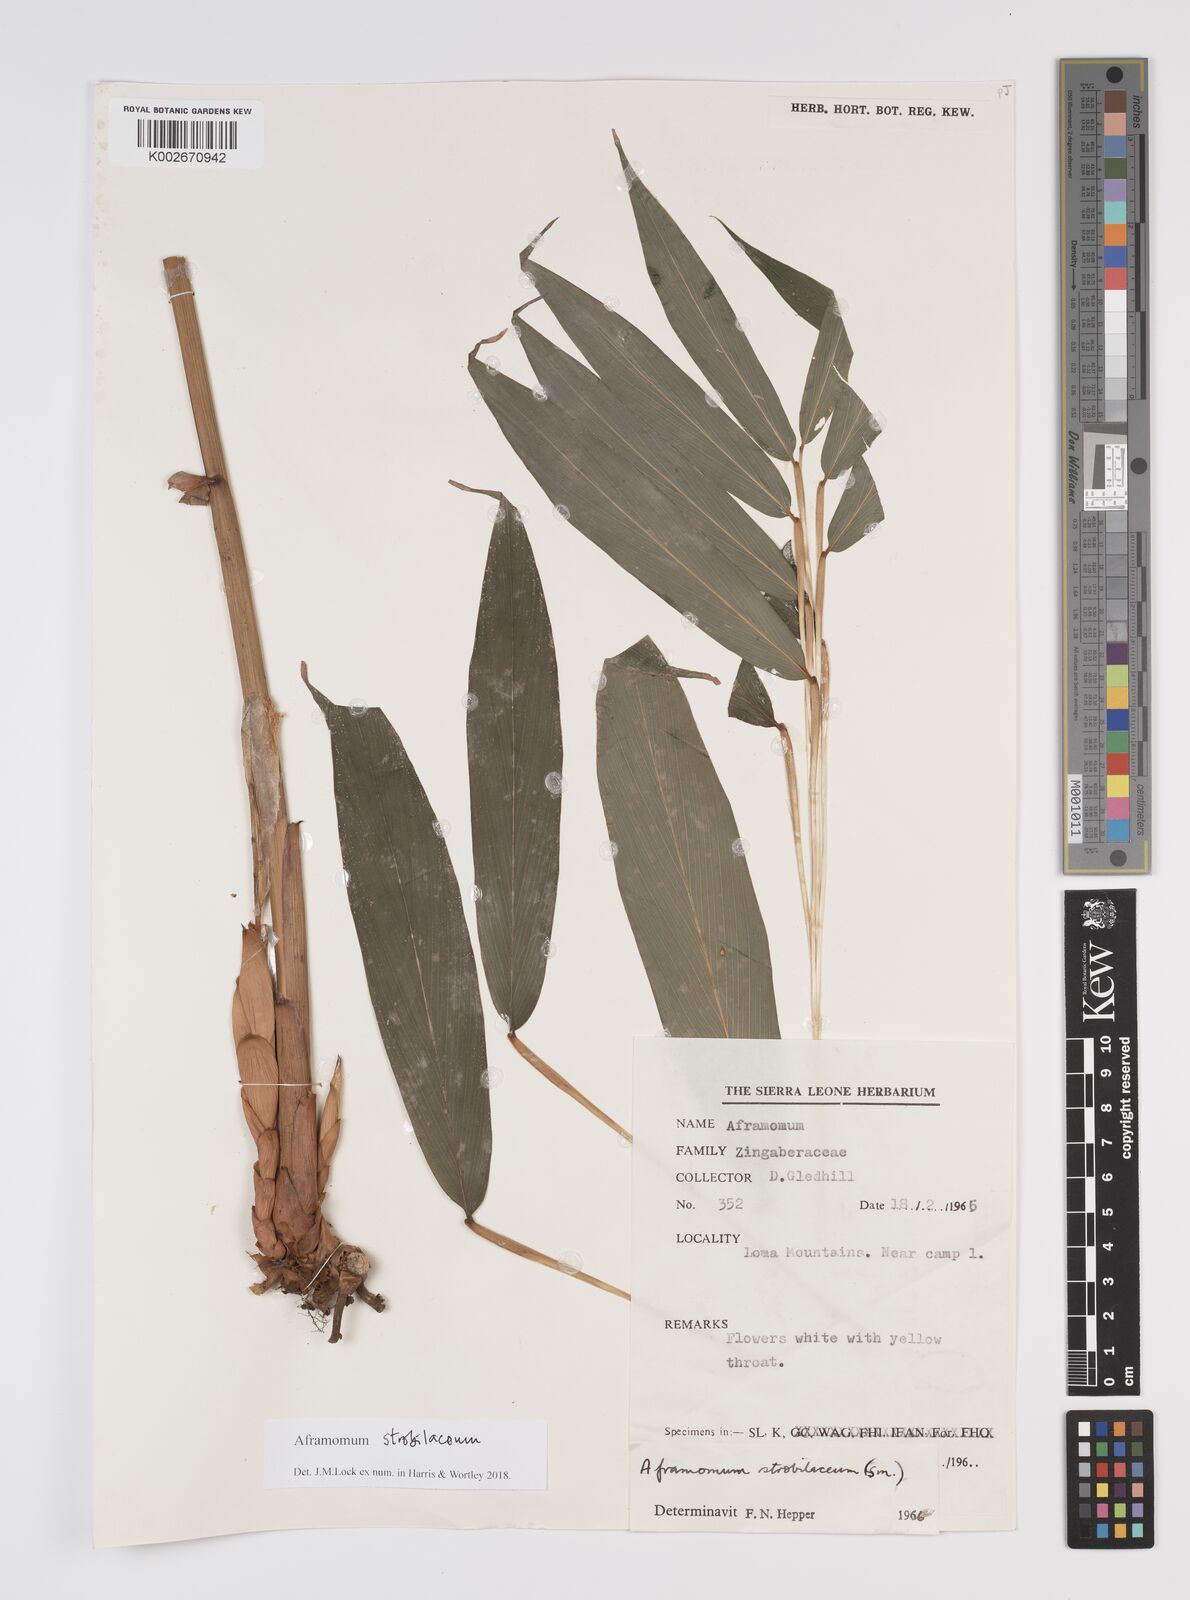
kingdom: Plantae
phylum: Tracheophyta
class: Liliopsida
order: Zingiberales
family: Zingiberaceae
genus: Aframomum
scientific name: Aframomum strobilaceum
